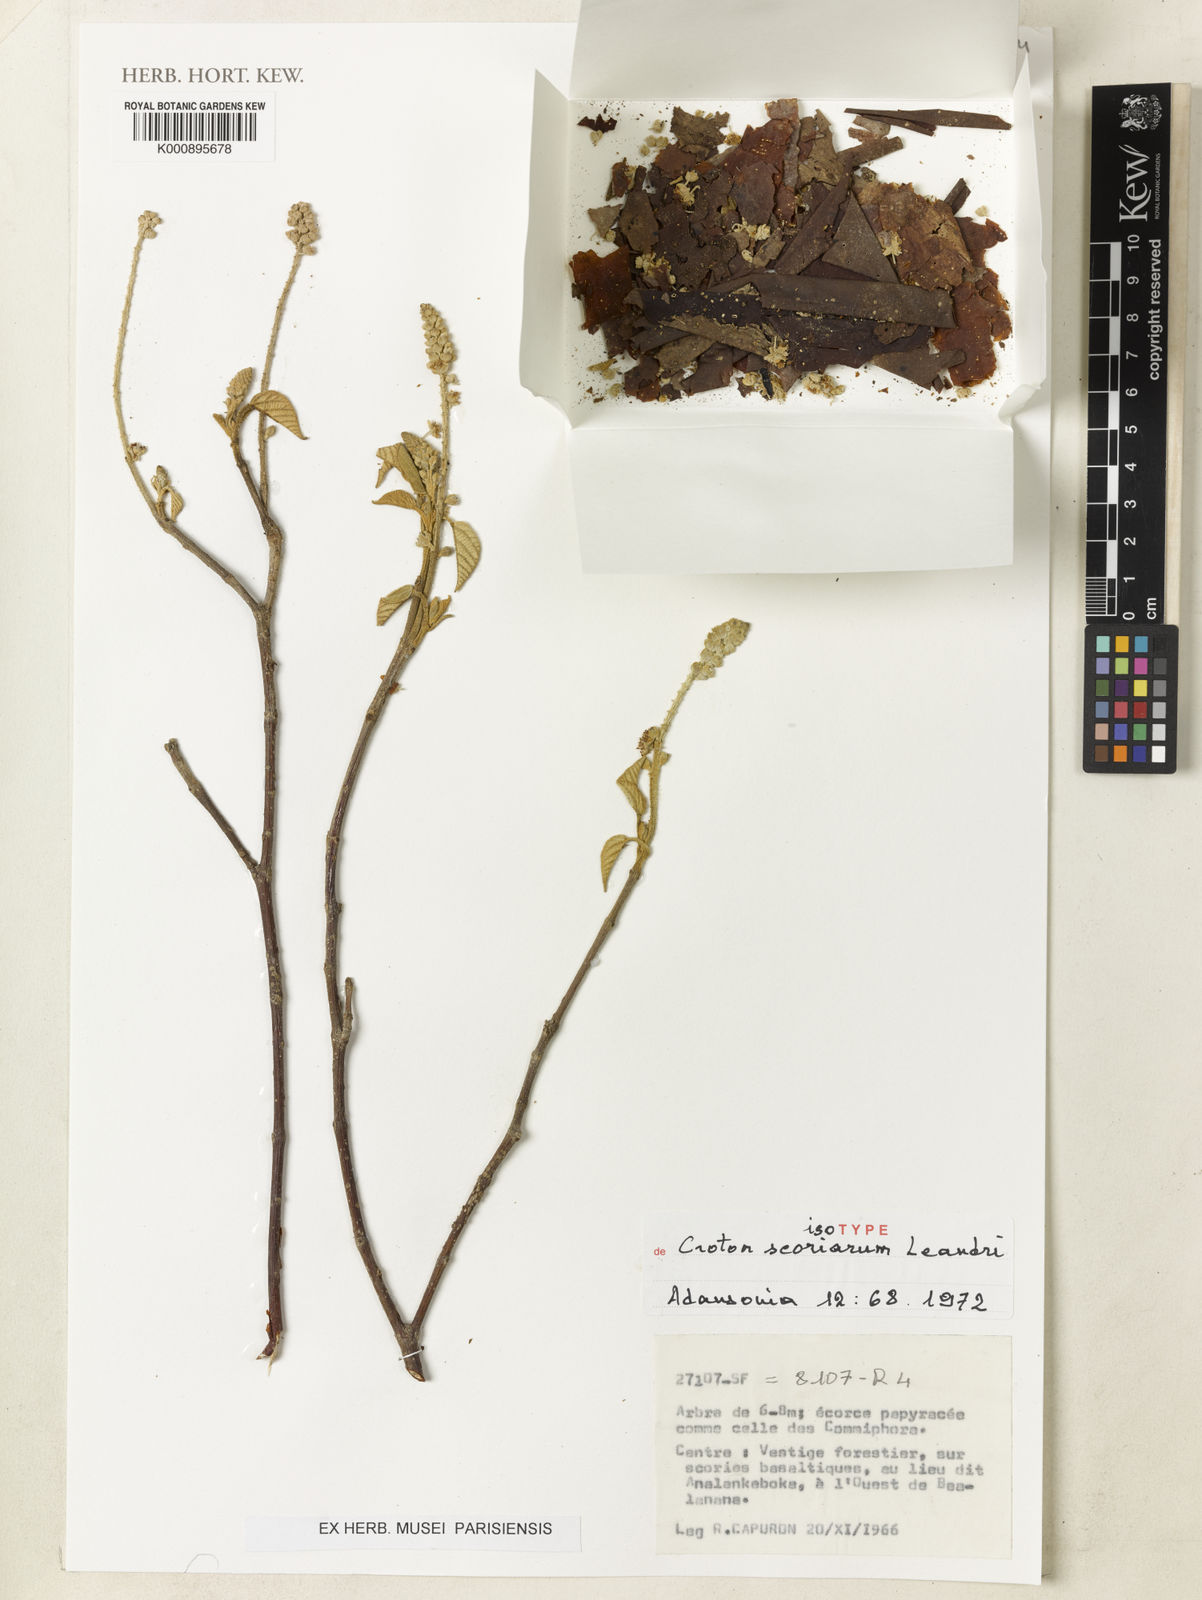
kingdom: Plantae
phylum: Tracheophyta
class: Magnoliopsida
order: Malpighiales
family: Euphorbiaceae
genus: Croton
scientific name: Croton scoriarum
